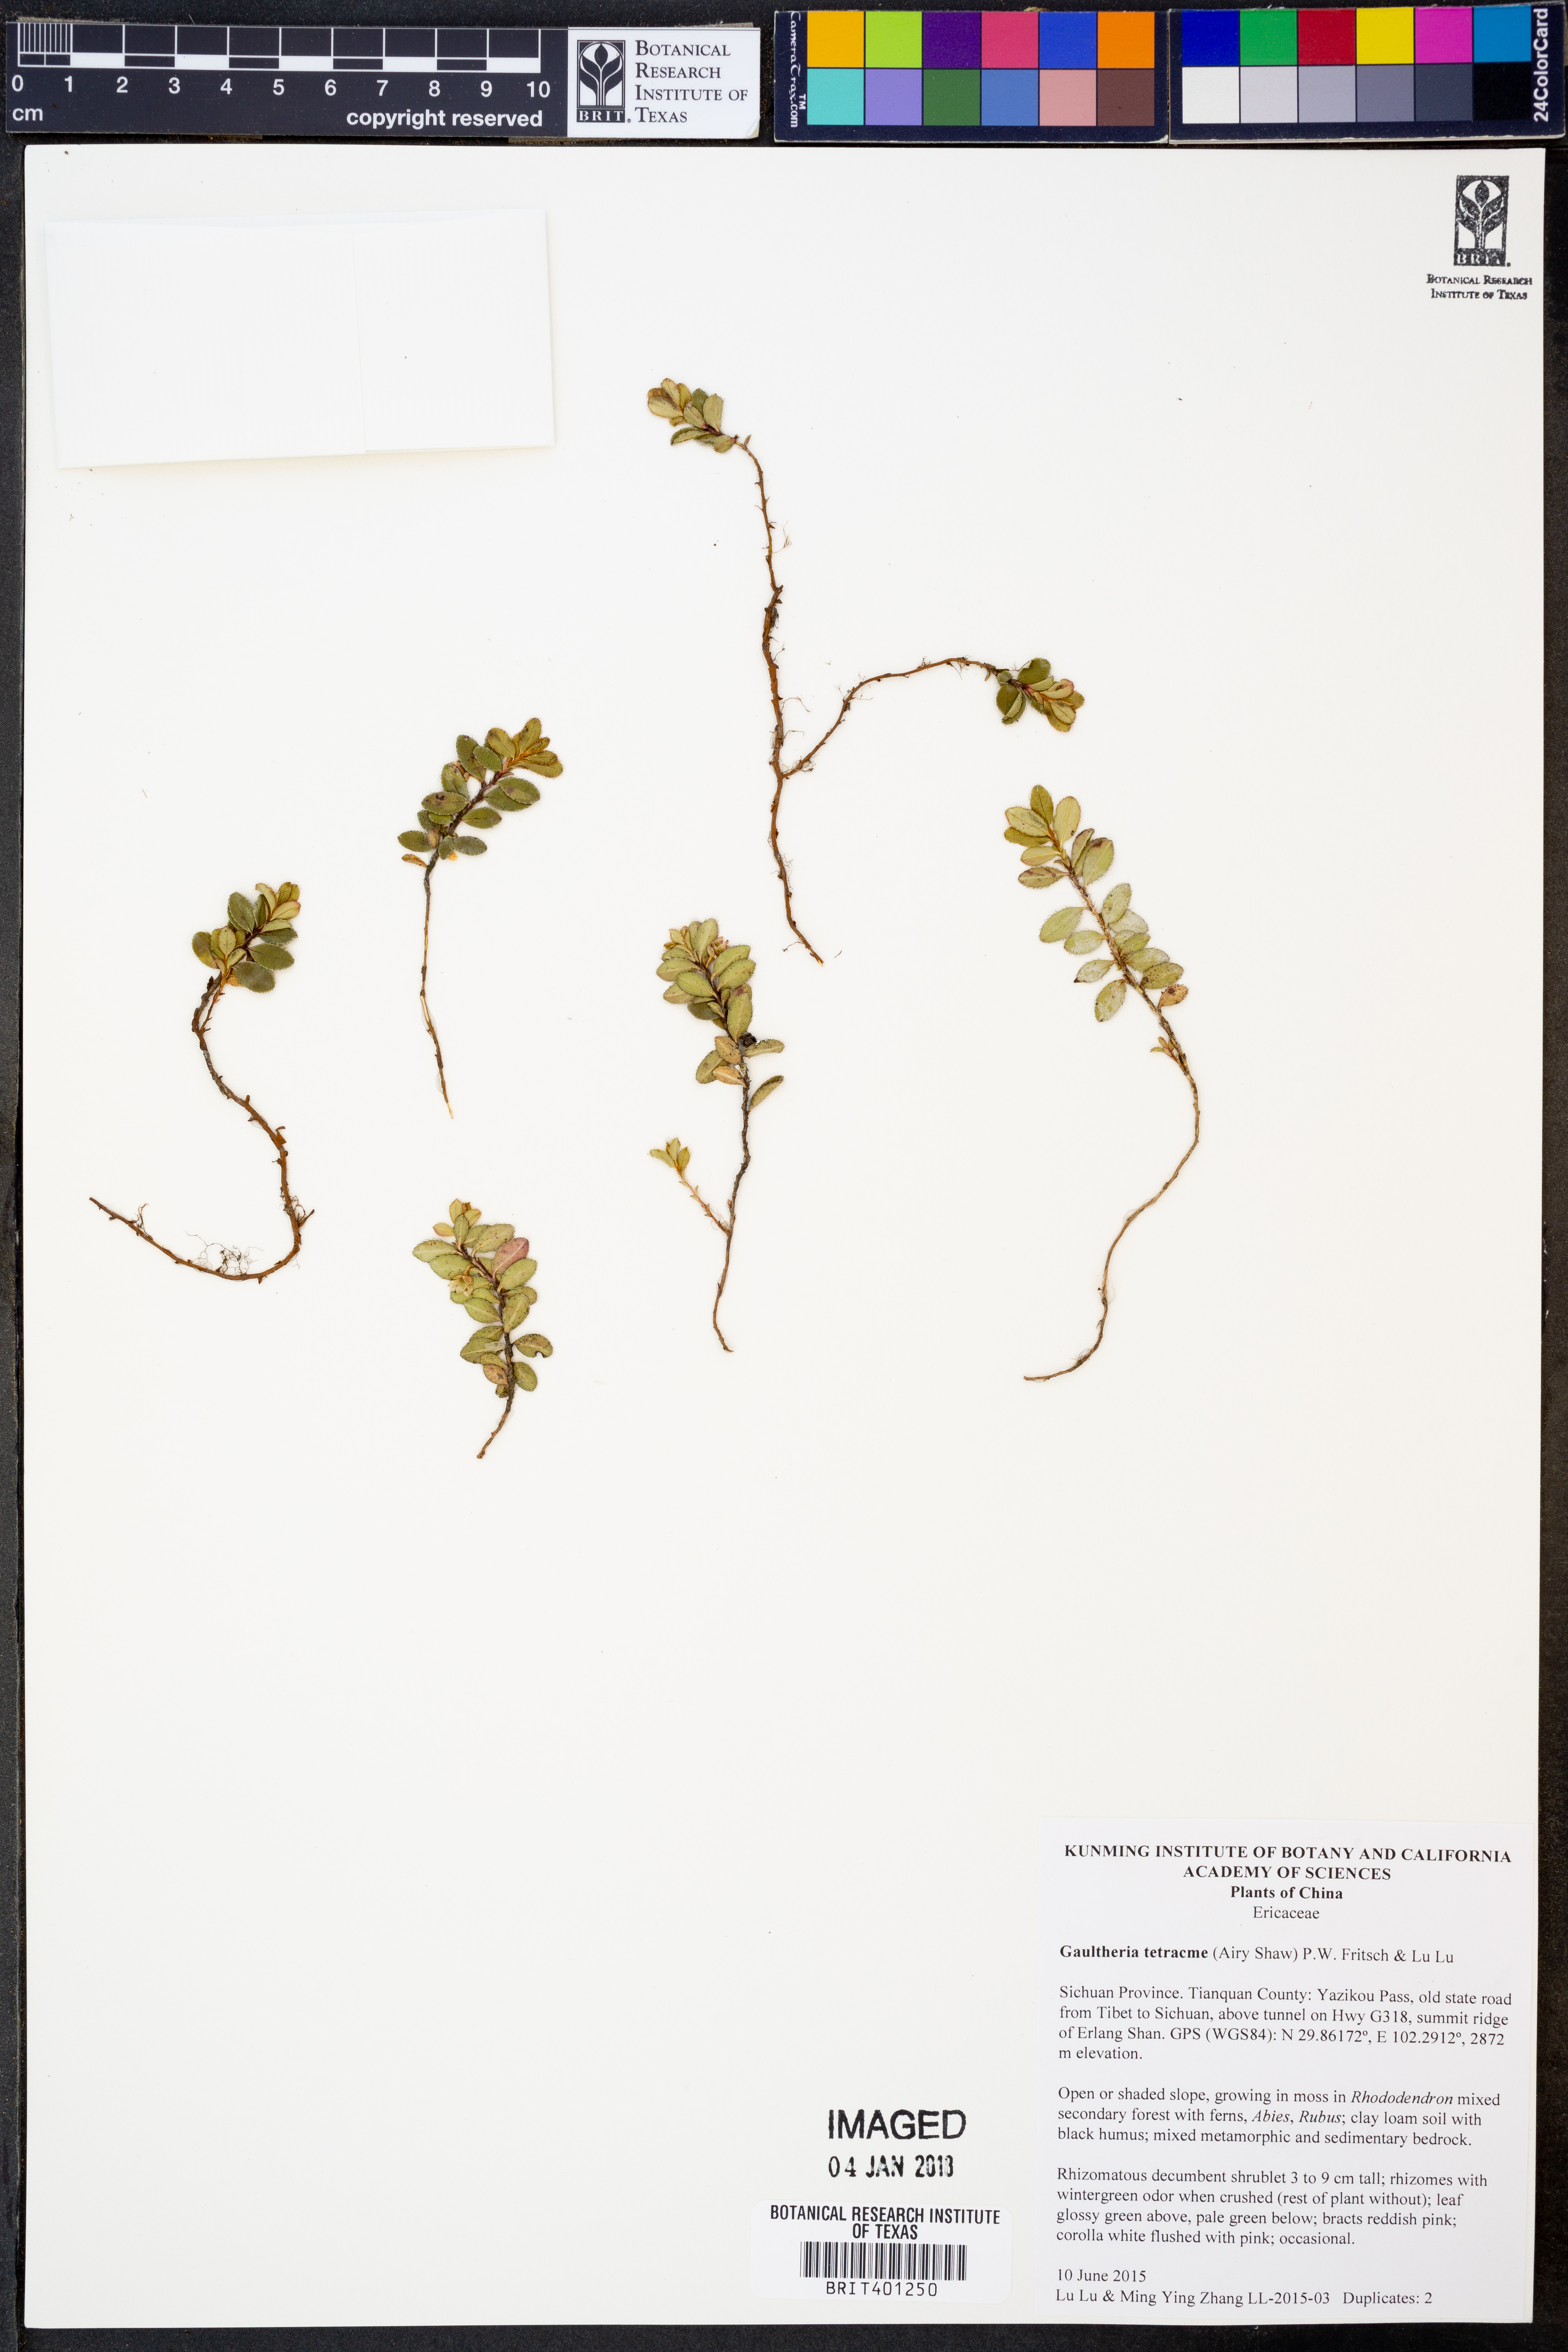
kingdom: Plantae
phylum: Tracheophyta
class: Magnoliopsida
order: Ericales
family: Ericaceae
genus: Gaultheria
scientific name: Gaultheria tetracme
